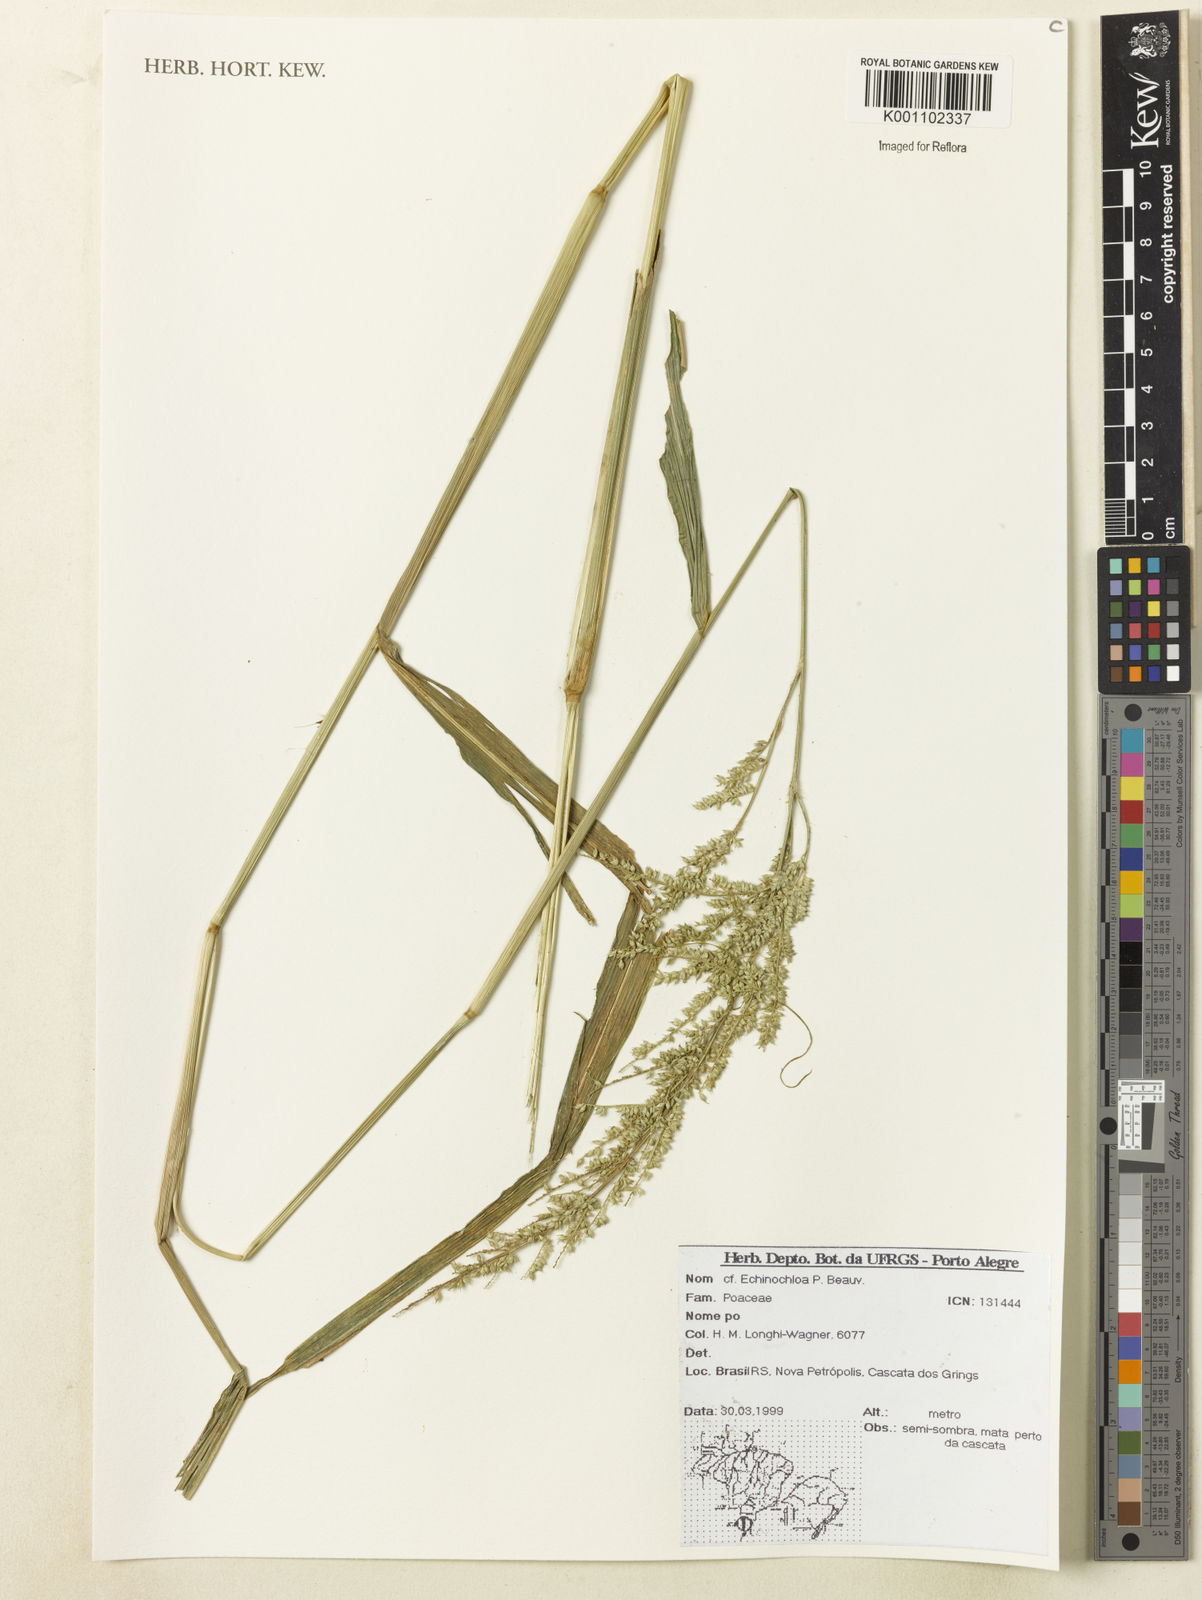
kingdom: Plantae
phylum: Tracheophyta
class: Liliopsida
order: Poales
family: Poaceae
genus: Echinochloa
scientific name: Echinochloa
